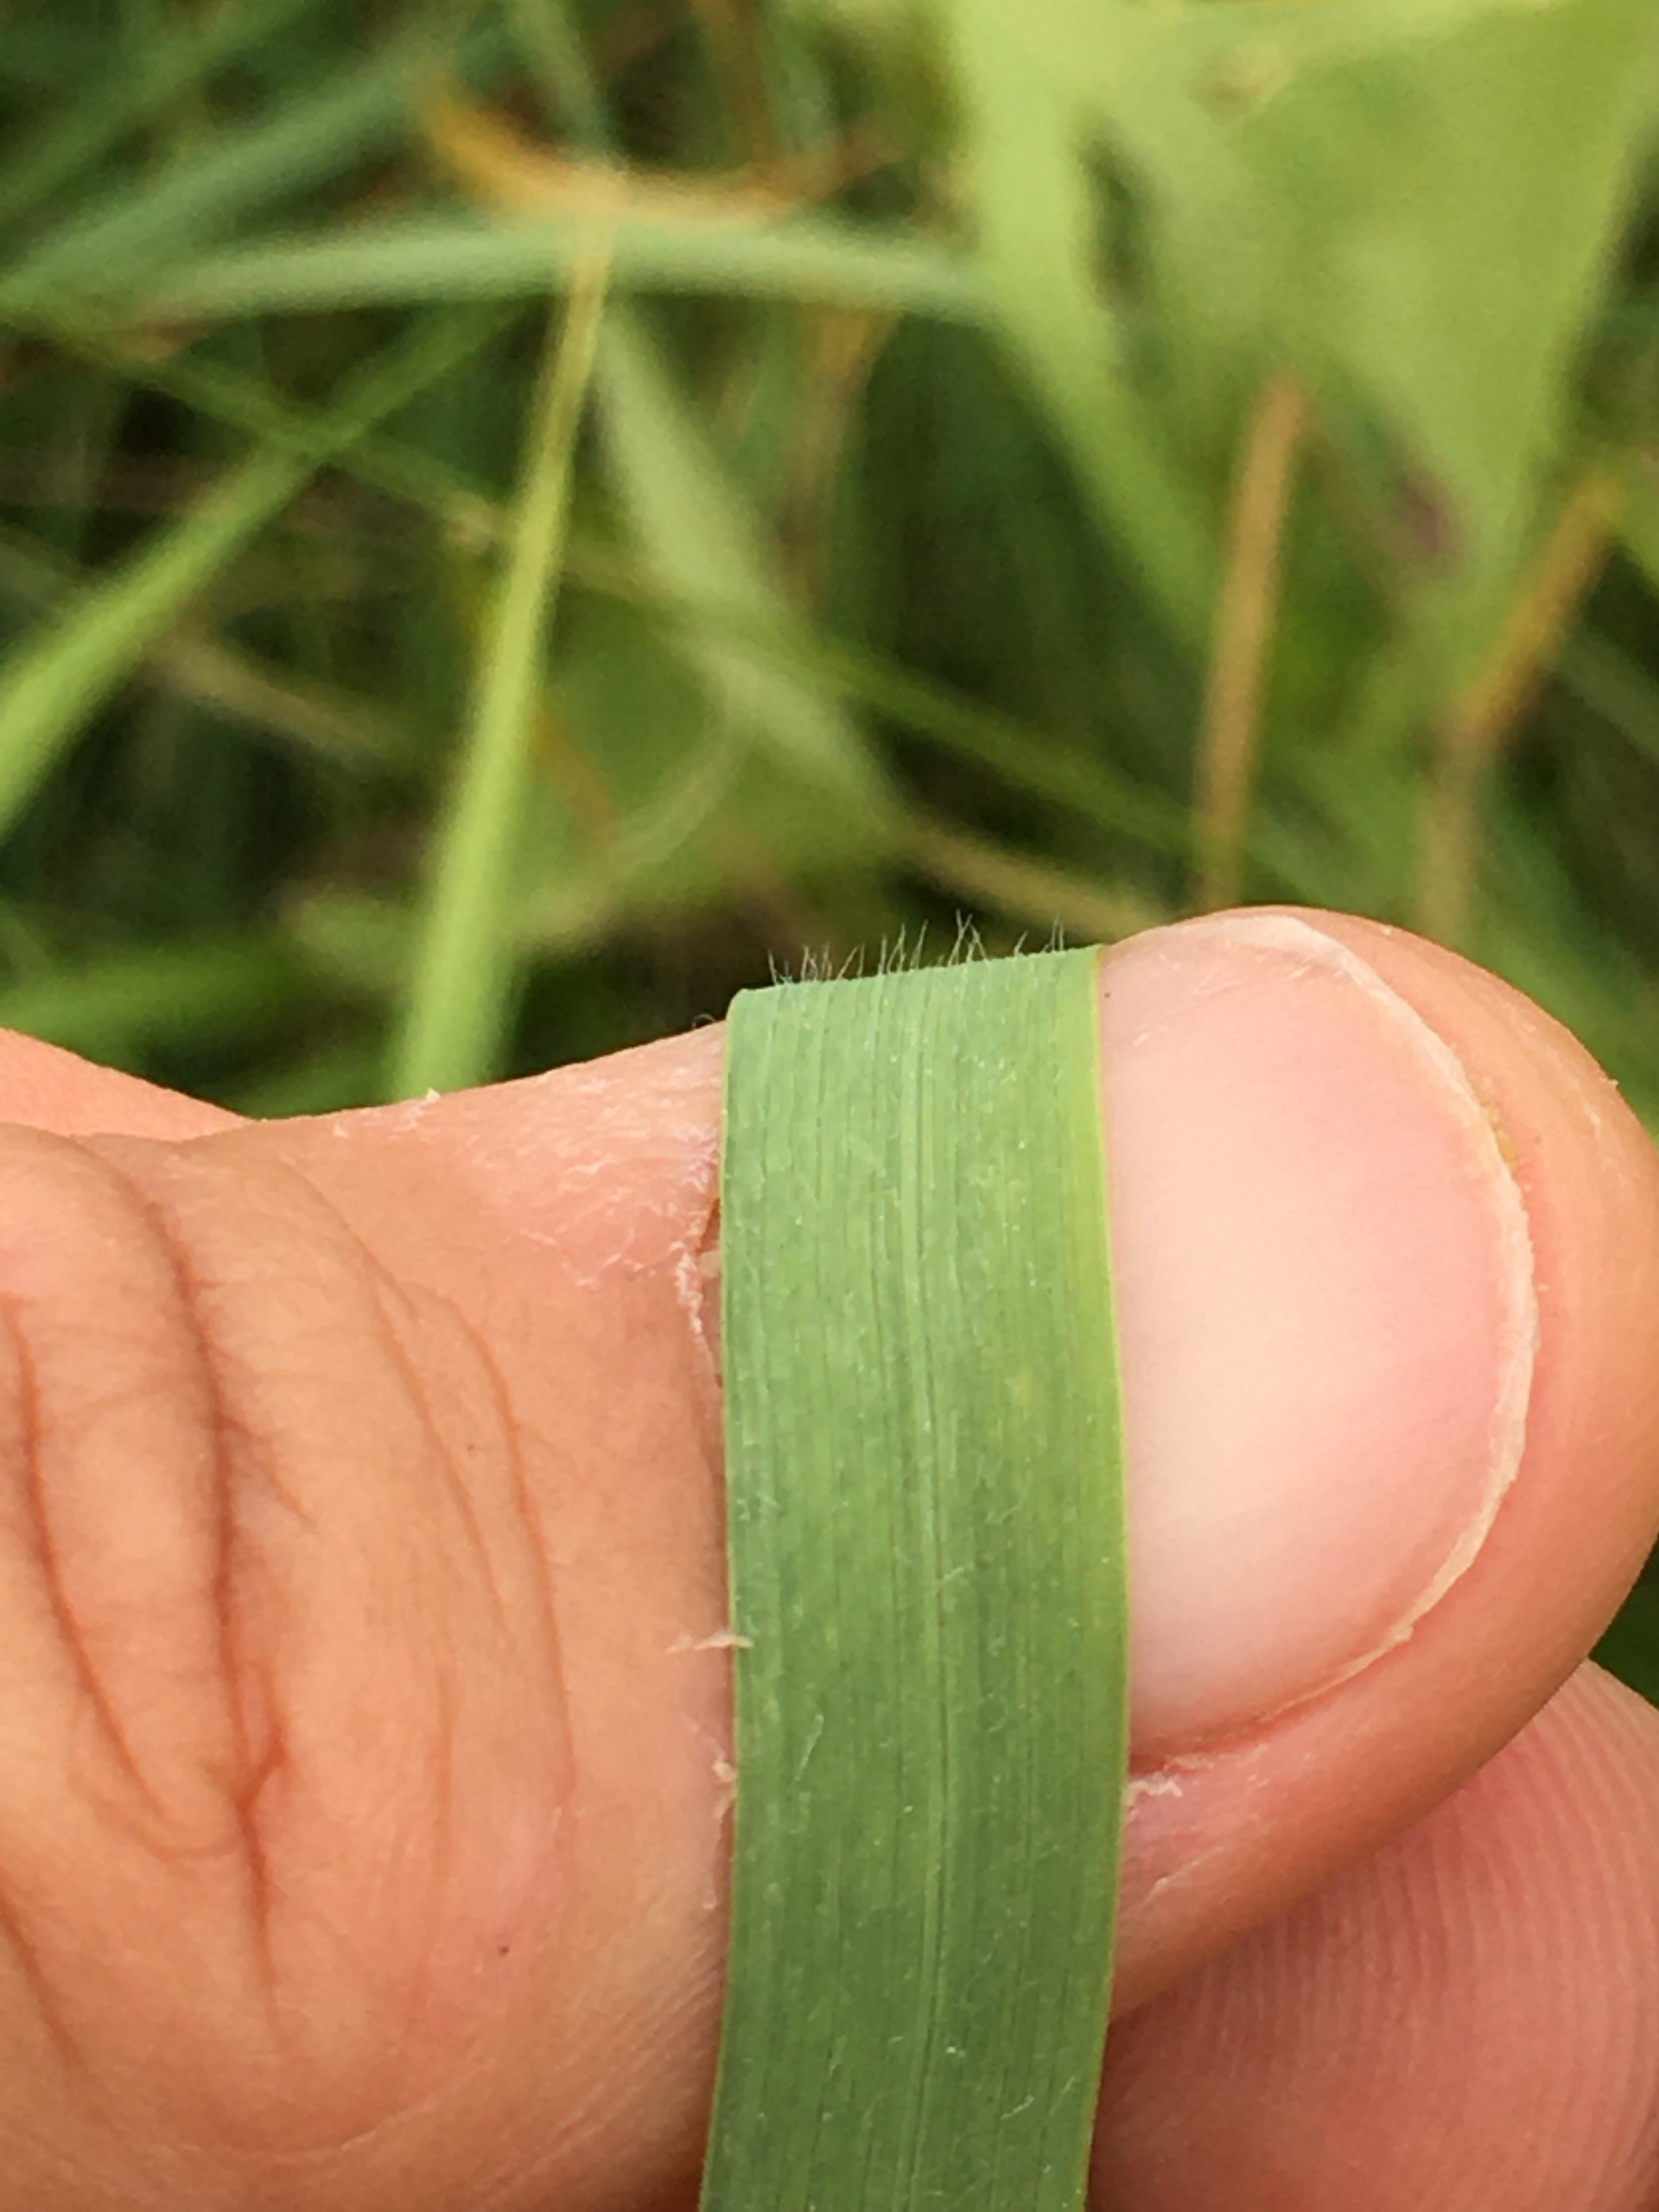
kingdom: Plantae
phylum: Tracheophyta
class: Liliopsida
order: Poales
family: Poaceae
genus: Elymus
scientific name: Elymus repens
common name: Almindelig kvik
